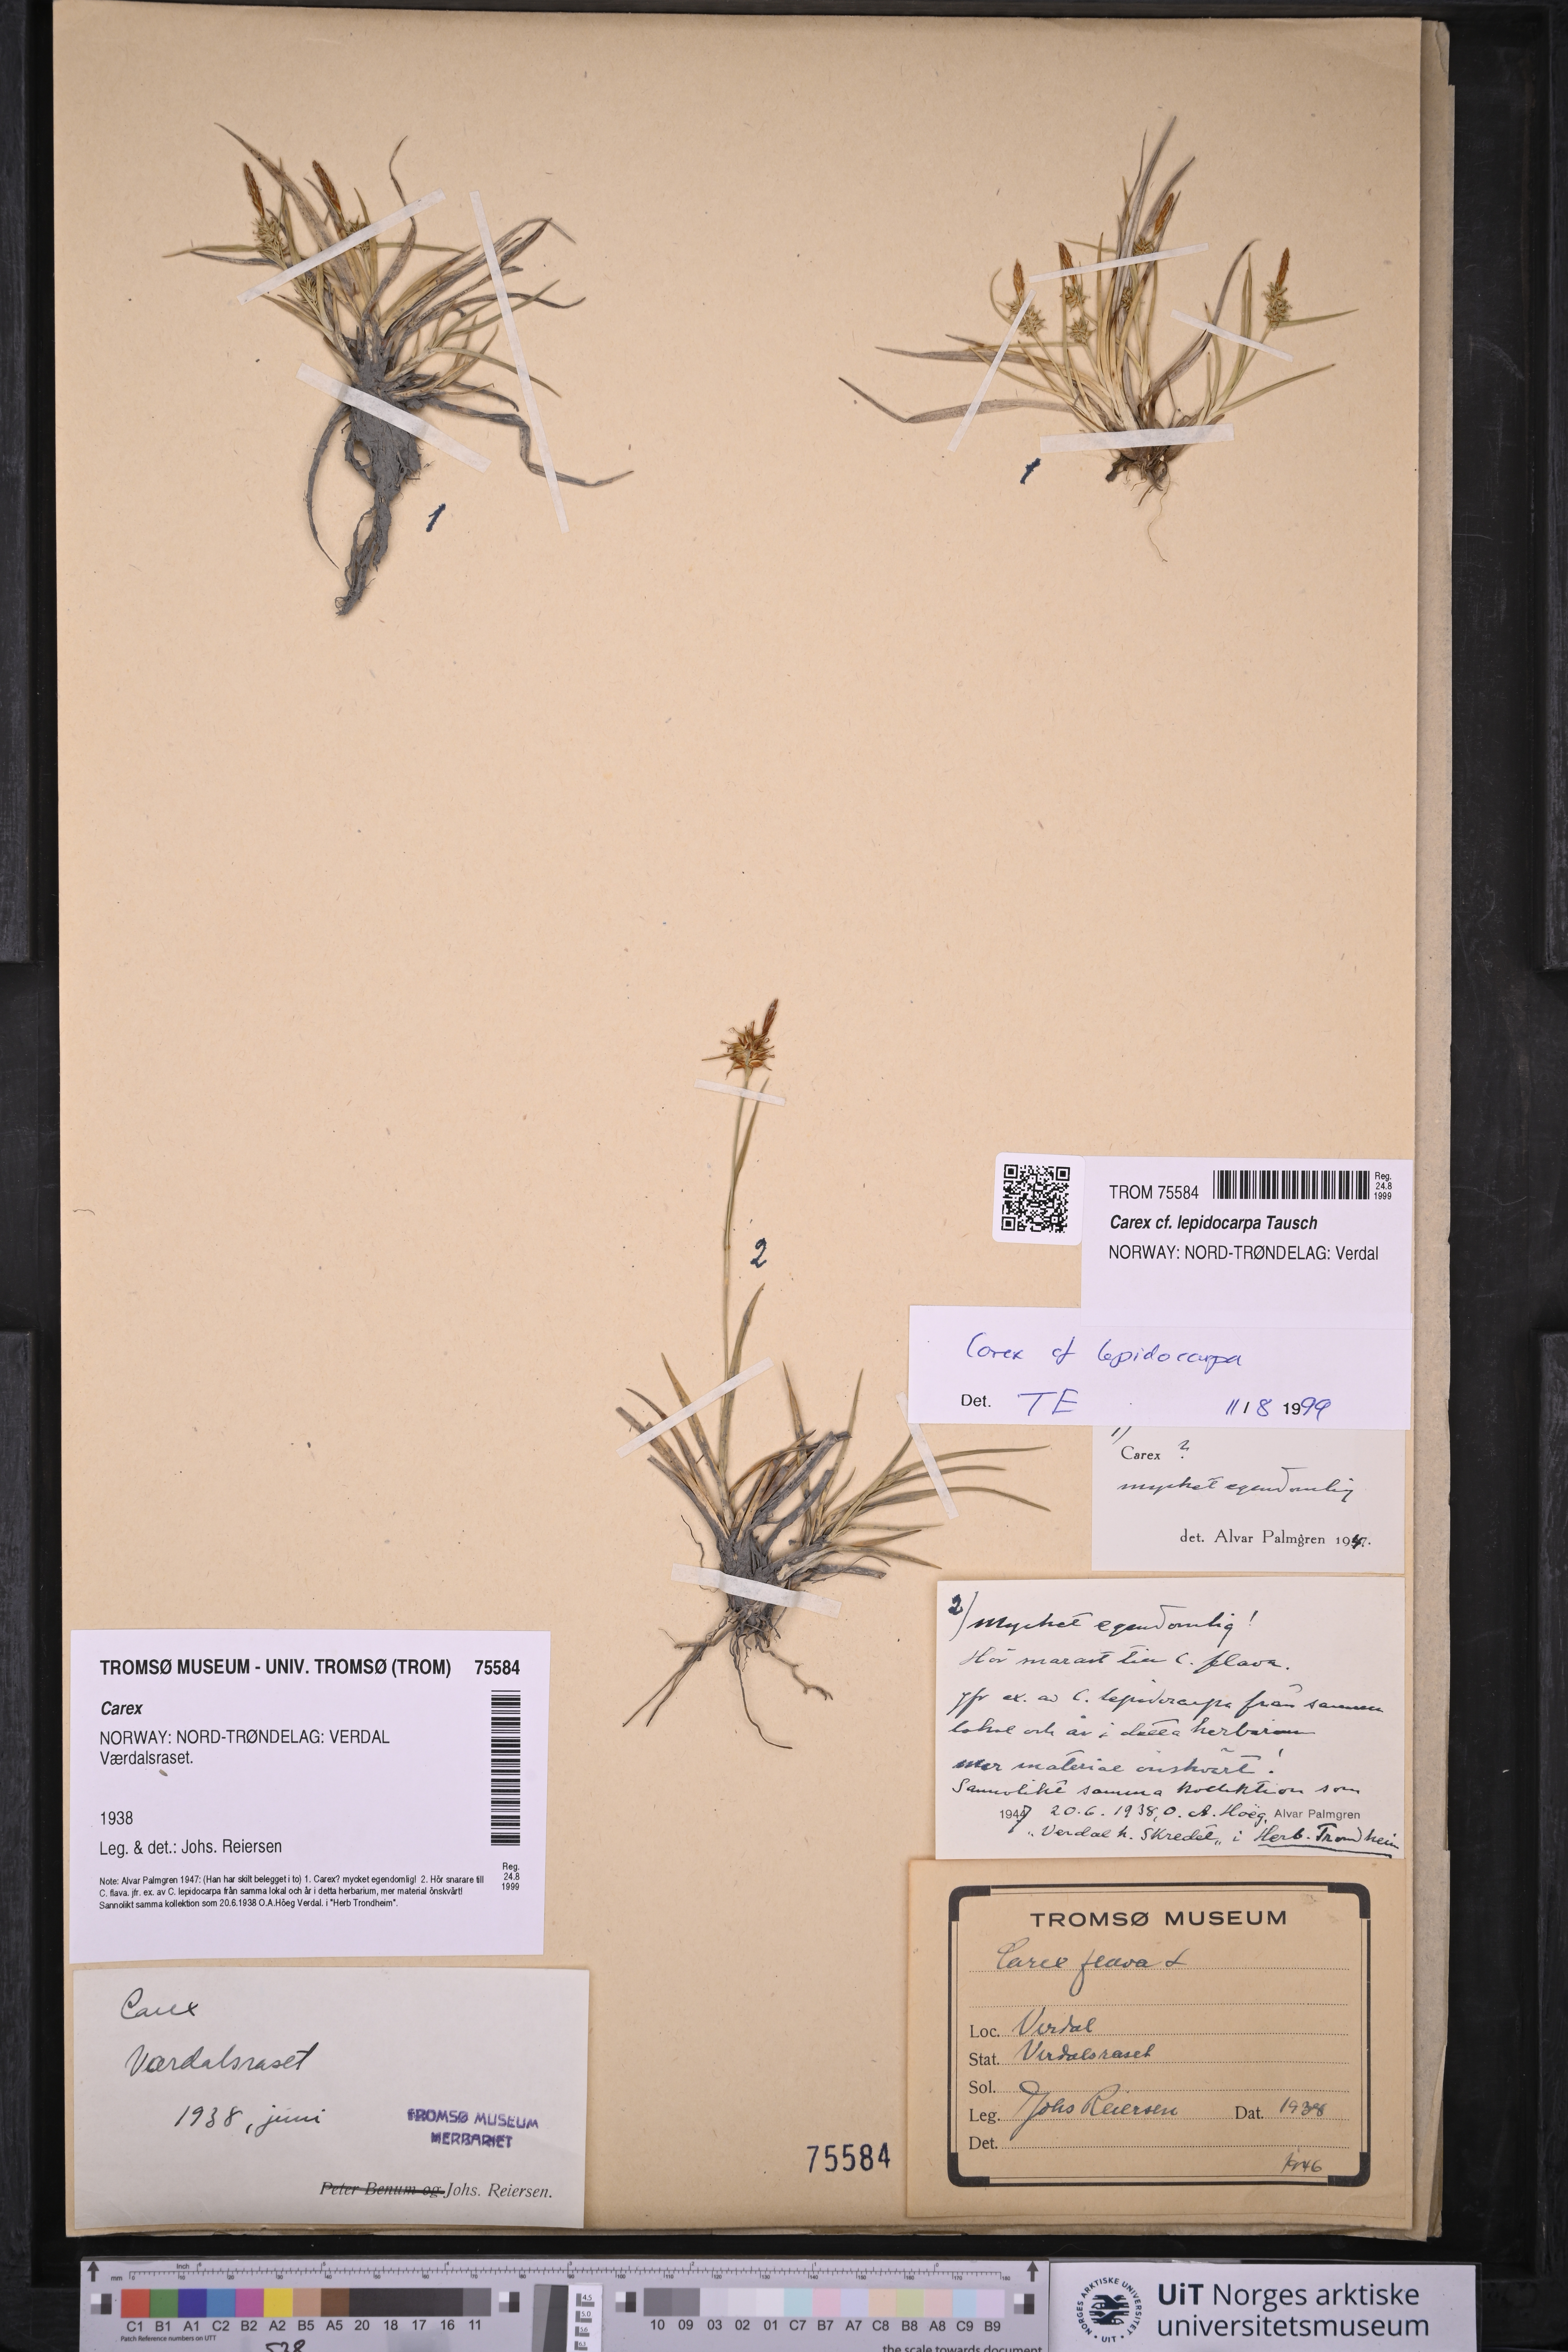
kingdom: Plantae
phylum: Tracheophyta
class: Liliopsida
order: Poales
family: Cyperaceae
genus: Carex
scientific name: Carex lepidocarpa
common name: Long-stalked yellow-sedge
